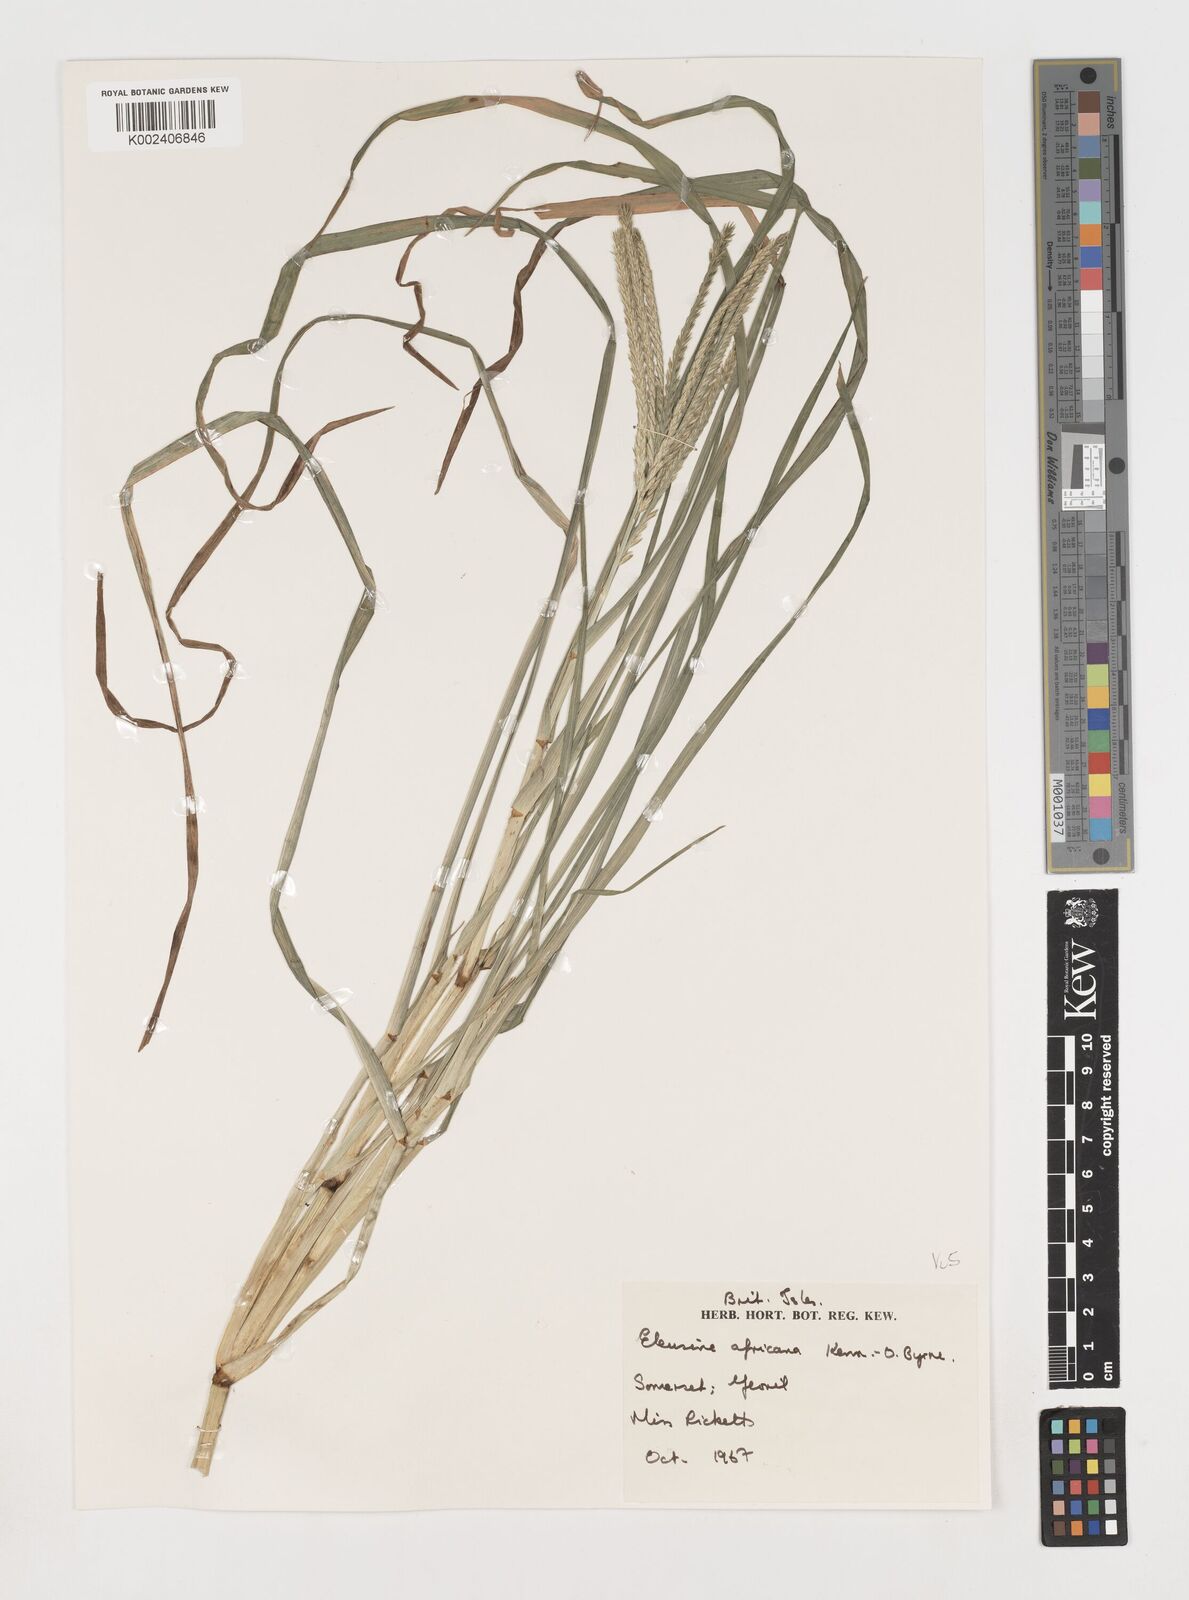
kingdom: Plantae
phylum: Tracheophyta
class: Liliopsida
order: Poales
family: Poaceae
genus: Eleusine
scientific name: Eleusine africana
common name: Wild african finger millet
